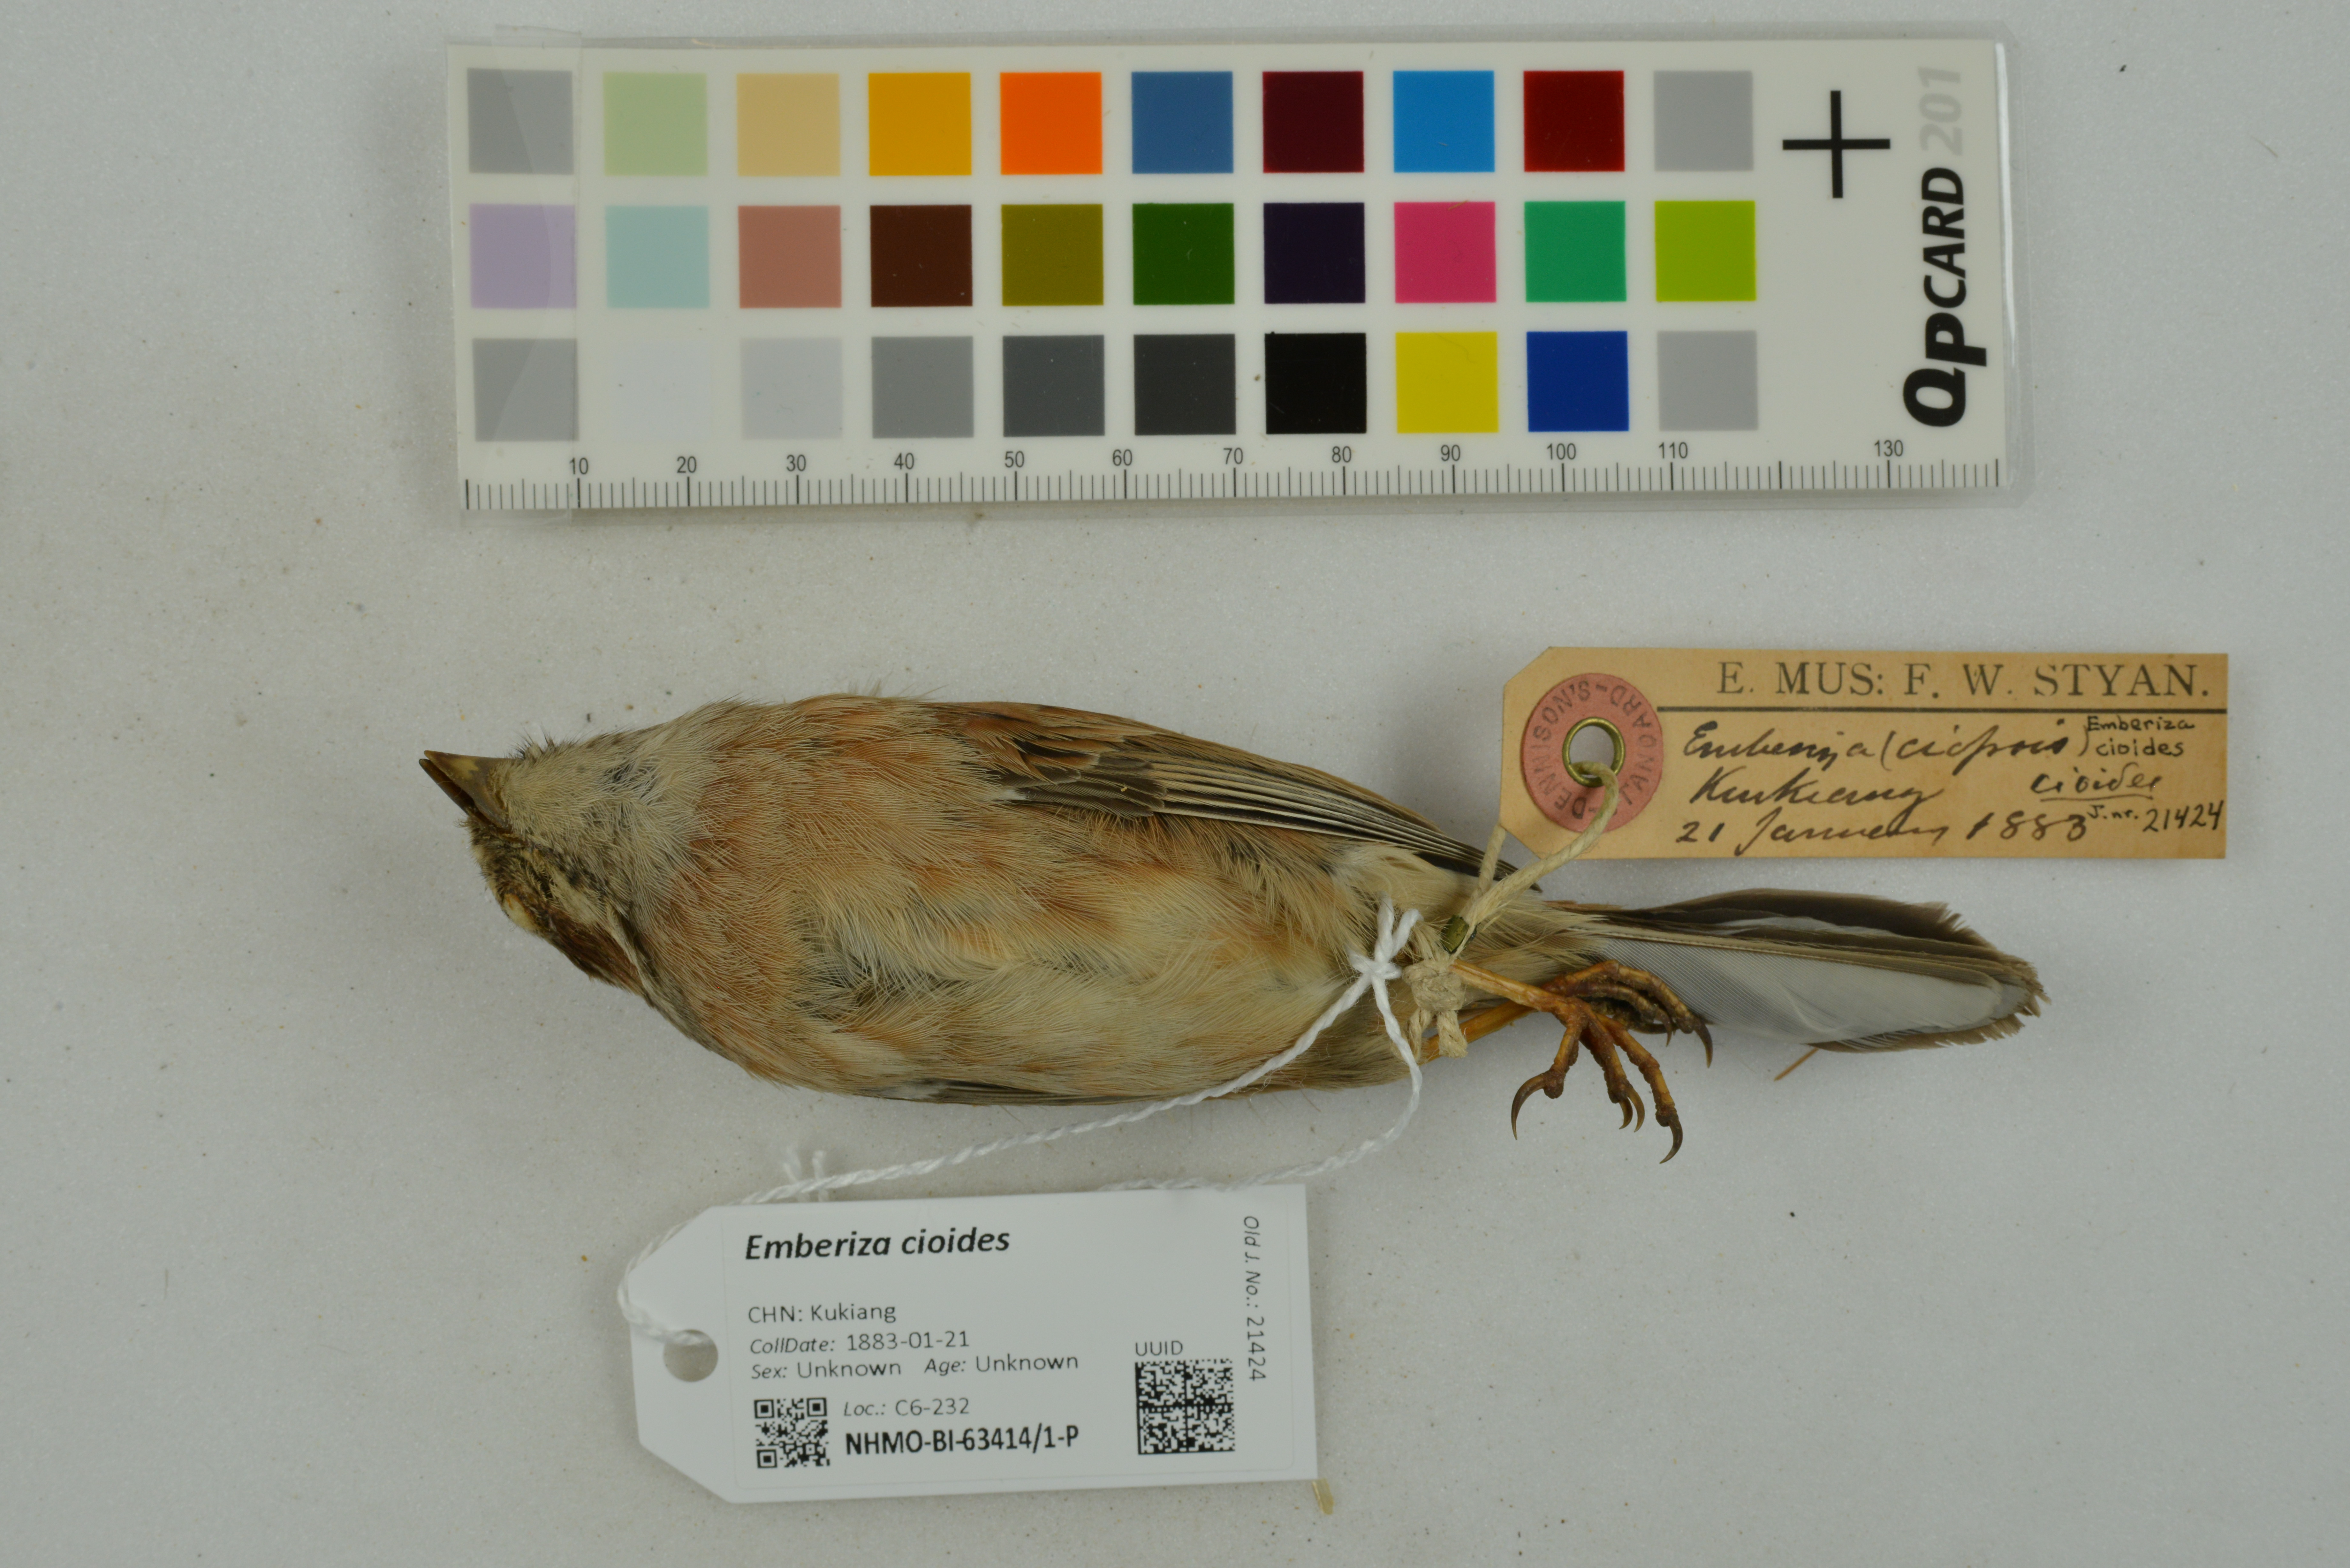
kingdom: Animalia
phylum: Chordata
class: Aves
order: Passeriformes
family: Emberizidae
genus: Emberiza
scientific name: Emberiza cioides
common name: Meadow bunting
